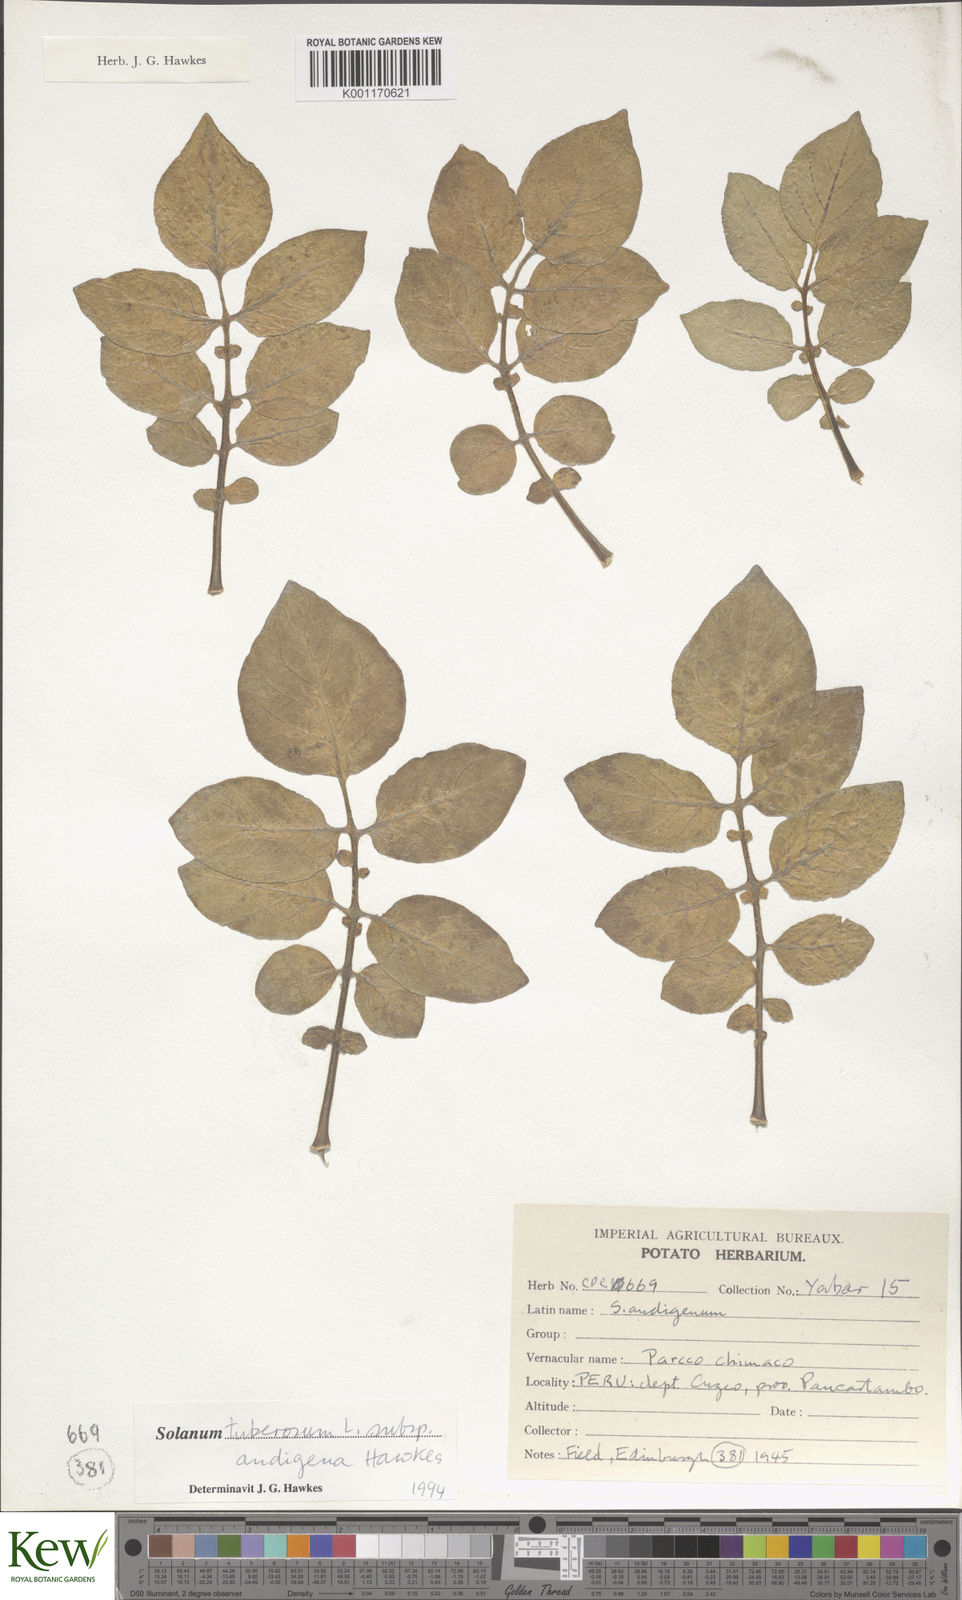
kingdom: Plantae
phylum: Tracheophyta
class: Magnoliopsida
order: Solanales
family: Solanaceae
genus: Solanum
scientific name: Solanum tuberosum
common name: Potato
